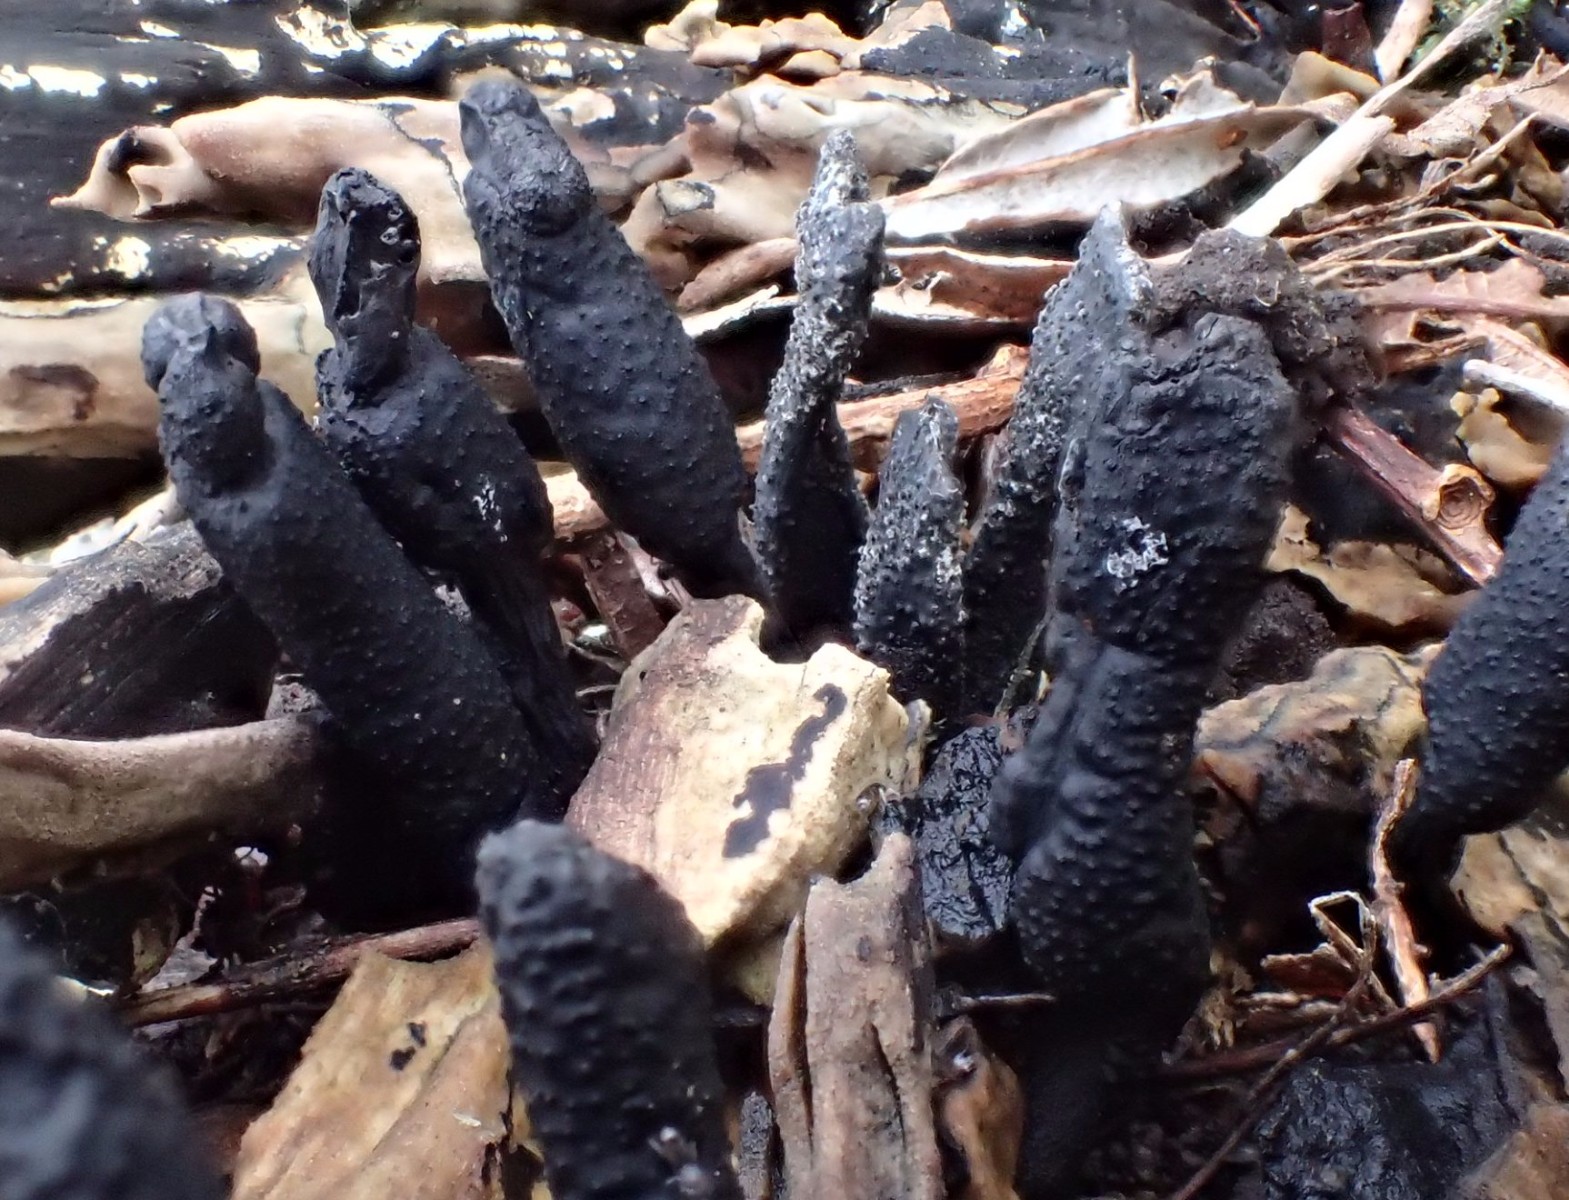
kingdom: Fungi
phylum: Ascomycota
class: Sordariomycetes
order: Xylariales
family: Xylariaceae
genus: Xylaria
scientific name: Xylaria hypoxylon
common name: grenet stødsvamp
